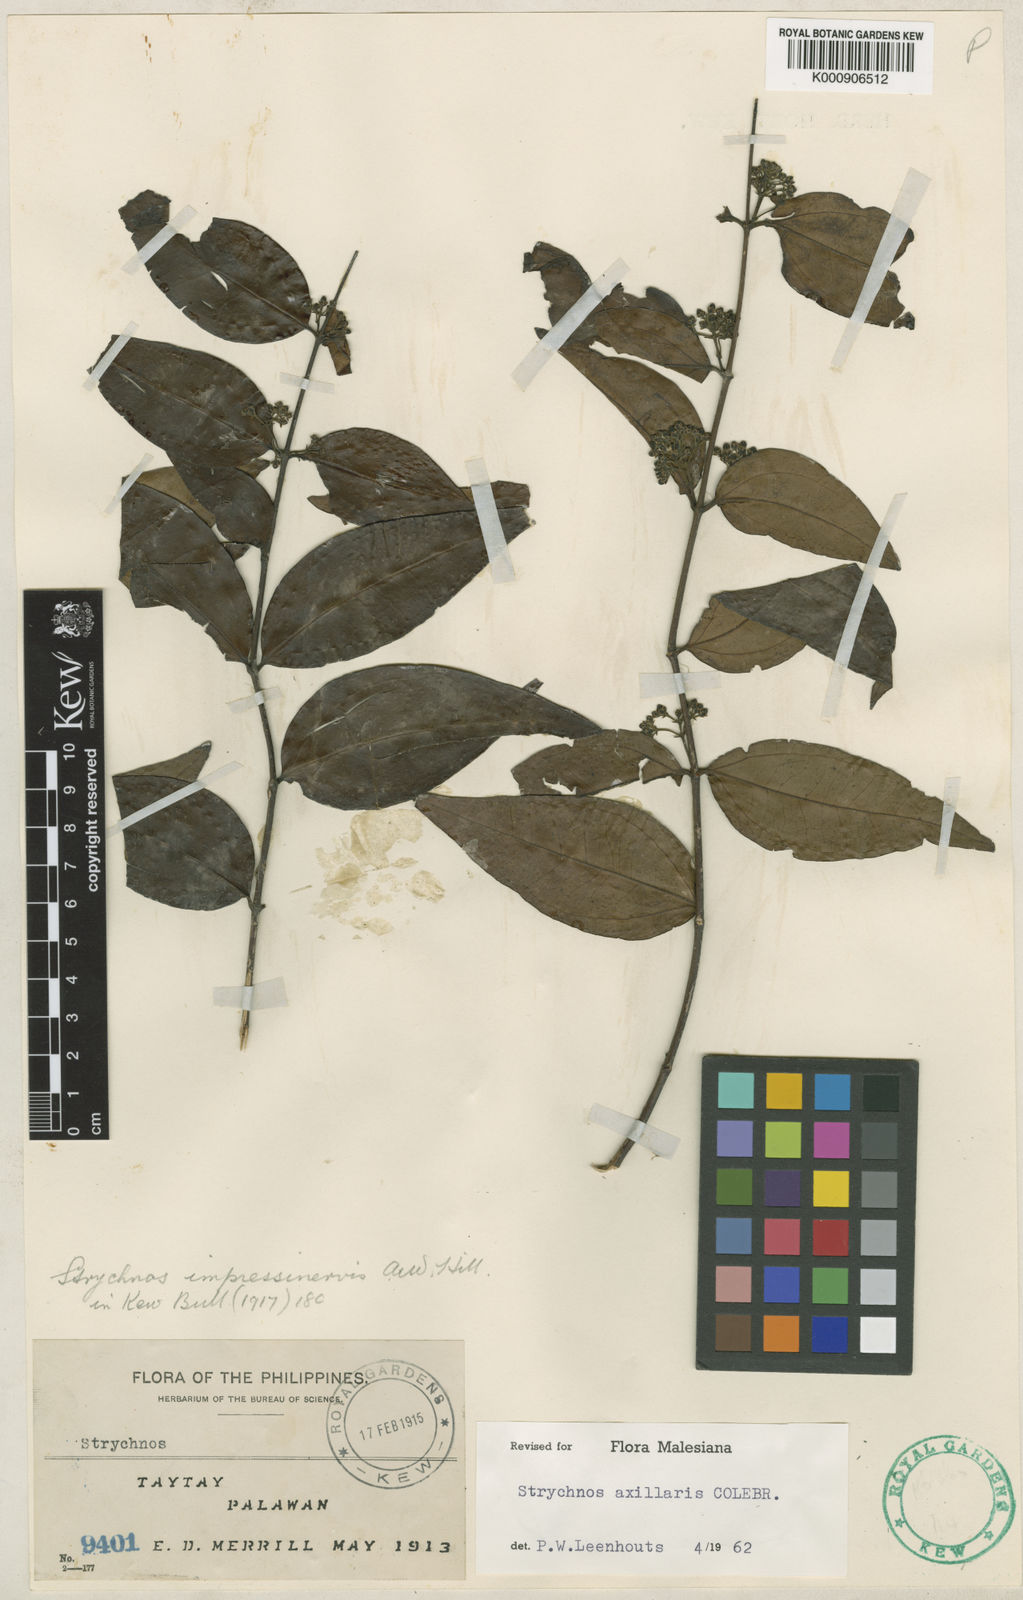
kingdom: Plantae
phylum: Tracheophyta
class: Magnoliopsida
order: Gentianales
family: Loganiaceae
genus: Strychnos
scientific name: Strychnos axillaris
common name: Strychninebush
